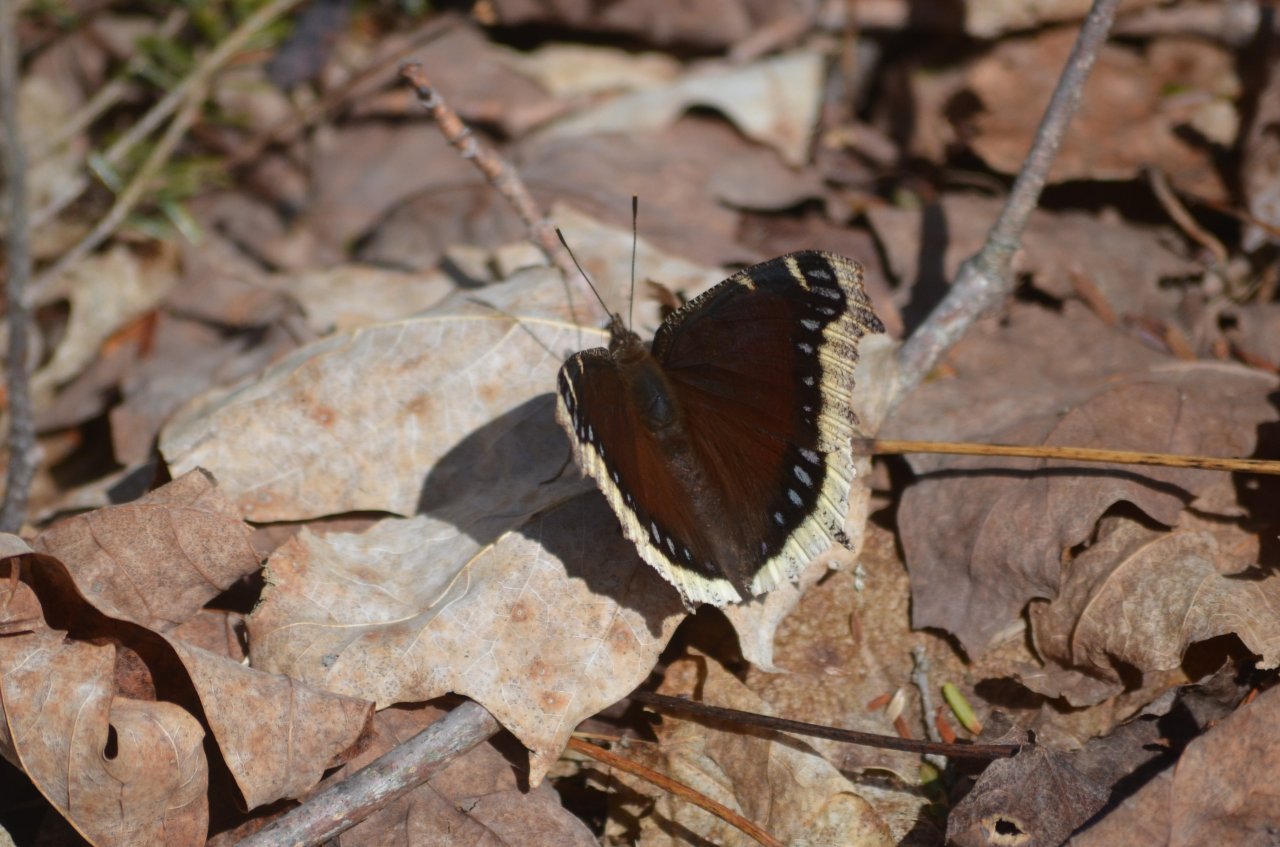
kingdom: Animalia
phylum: Arthropoda
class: Insecta
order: Lepidoptera
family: Nymphalidae
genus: Nymphalis
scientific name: Nymphalis antiopa
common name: Mourning Cloak
